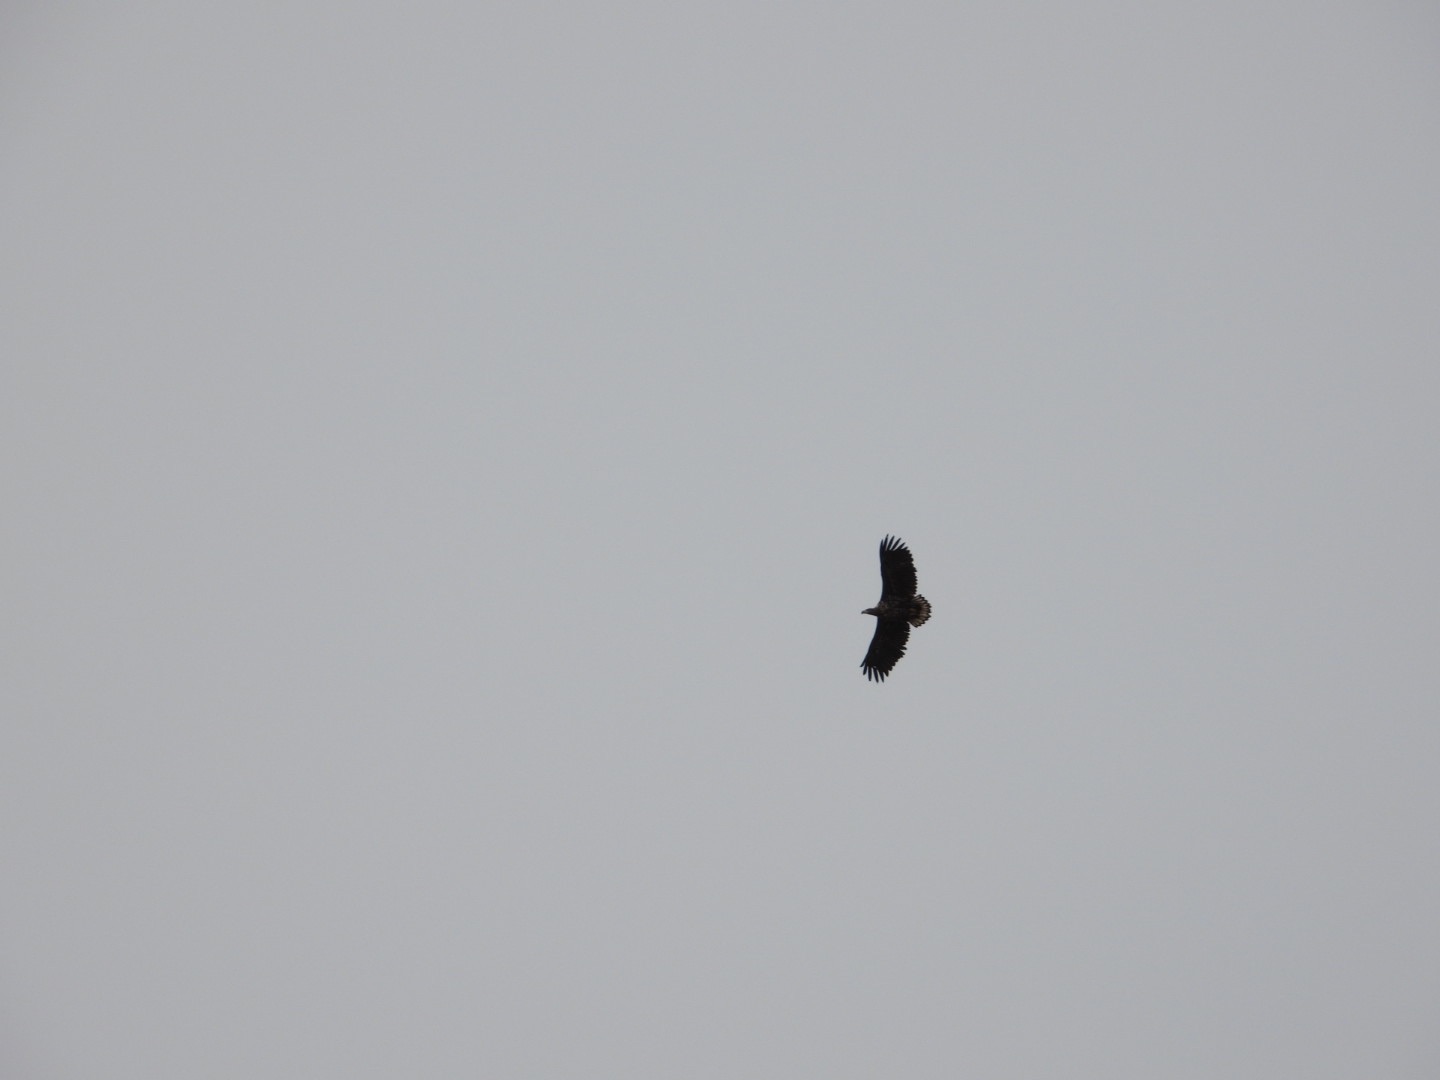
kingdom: Animalia
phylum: Chordata
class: Aves
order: Accipitriformes
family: Accipitridae
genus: Haliaeetus
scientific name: Haliaeetus albicilla
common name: Havørn
